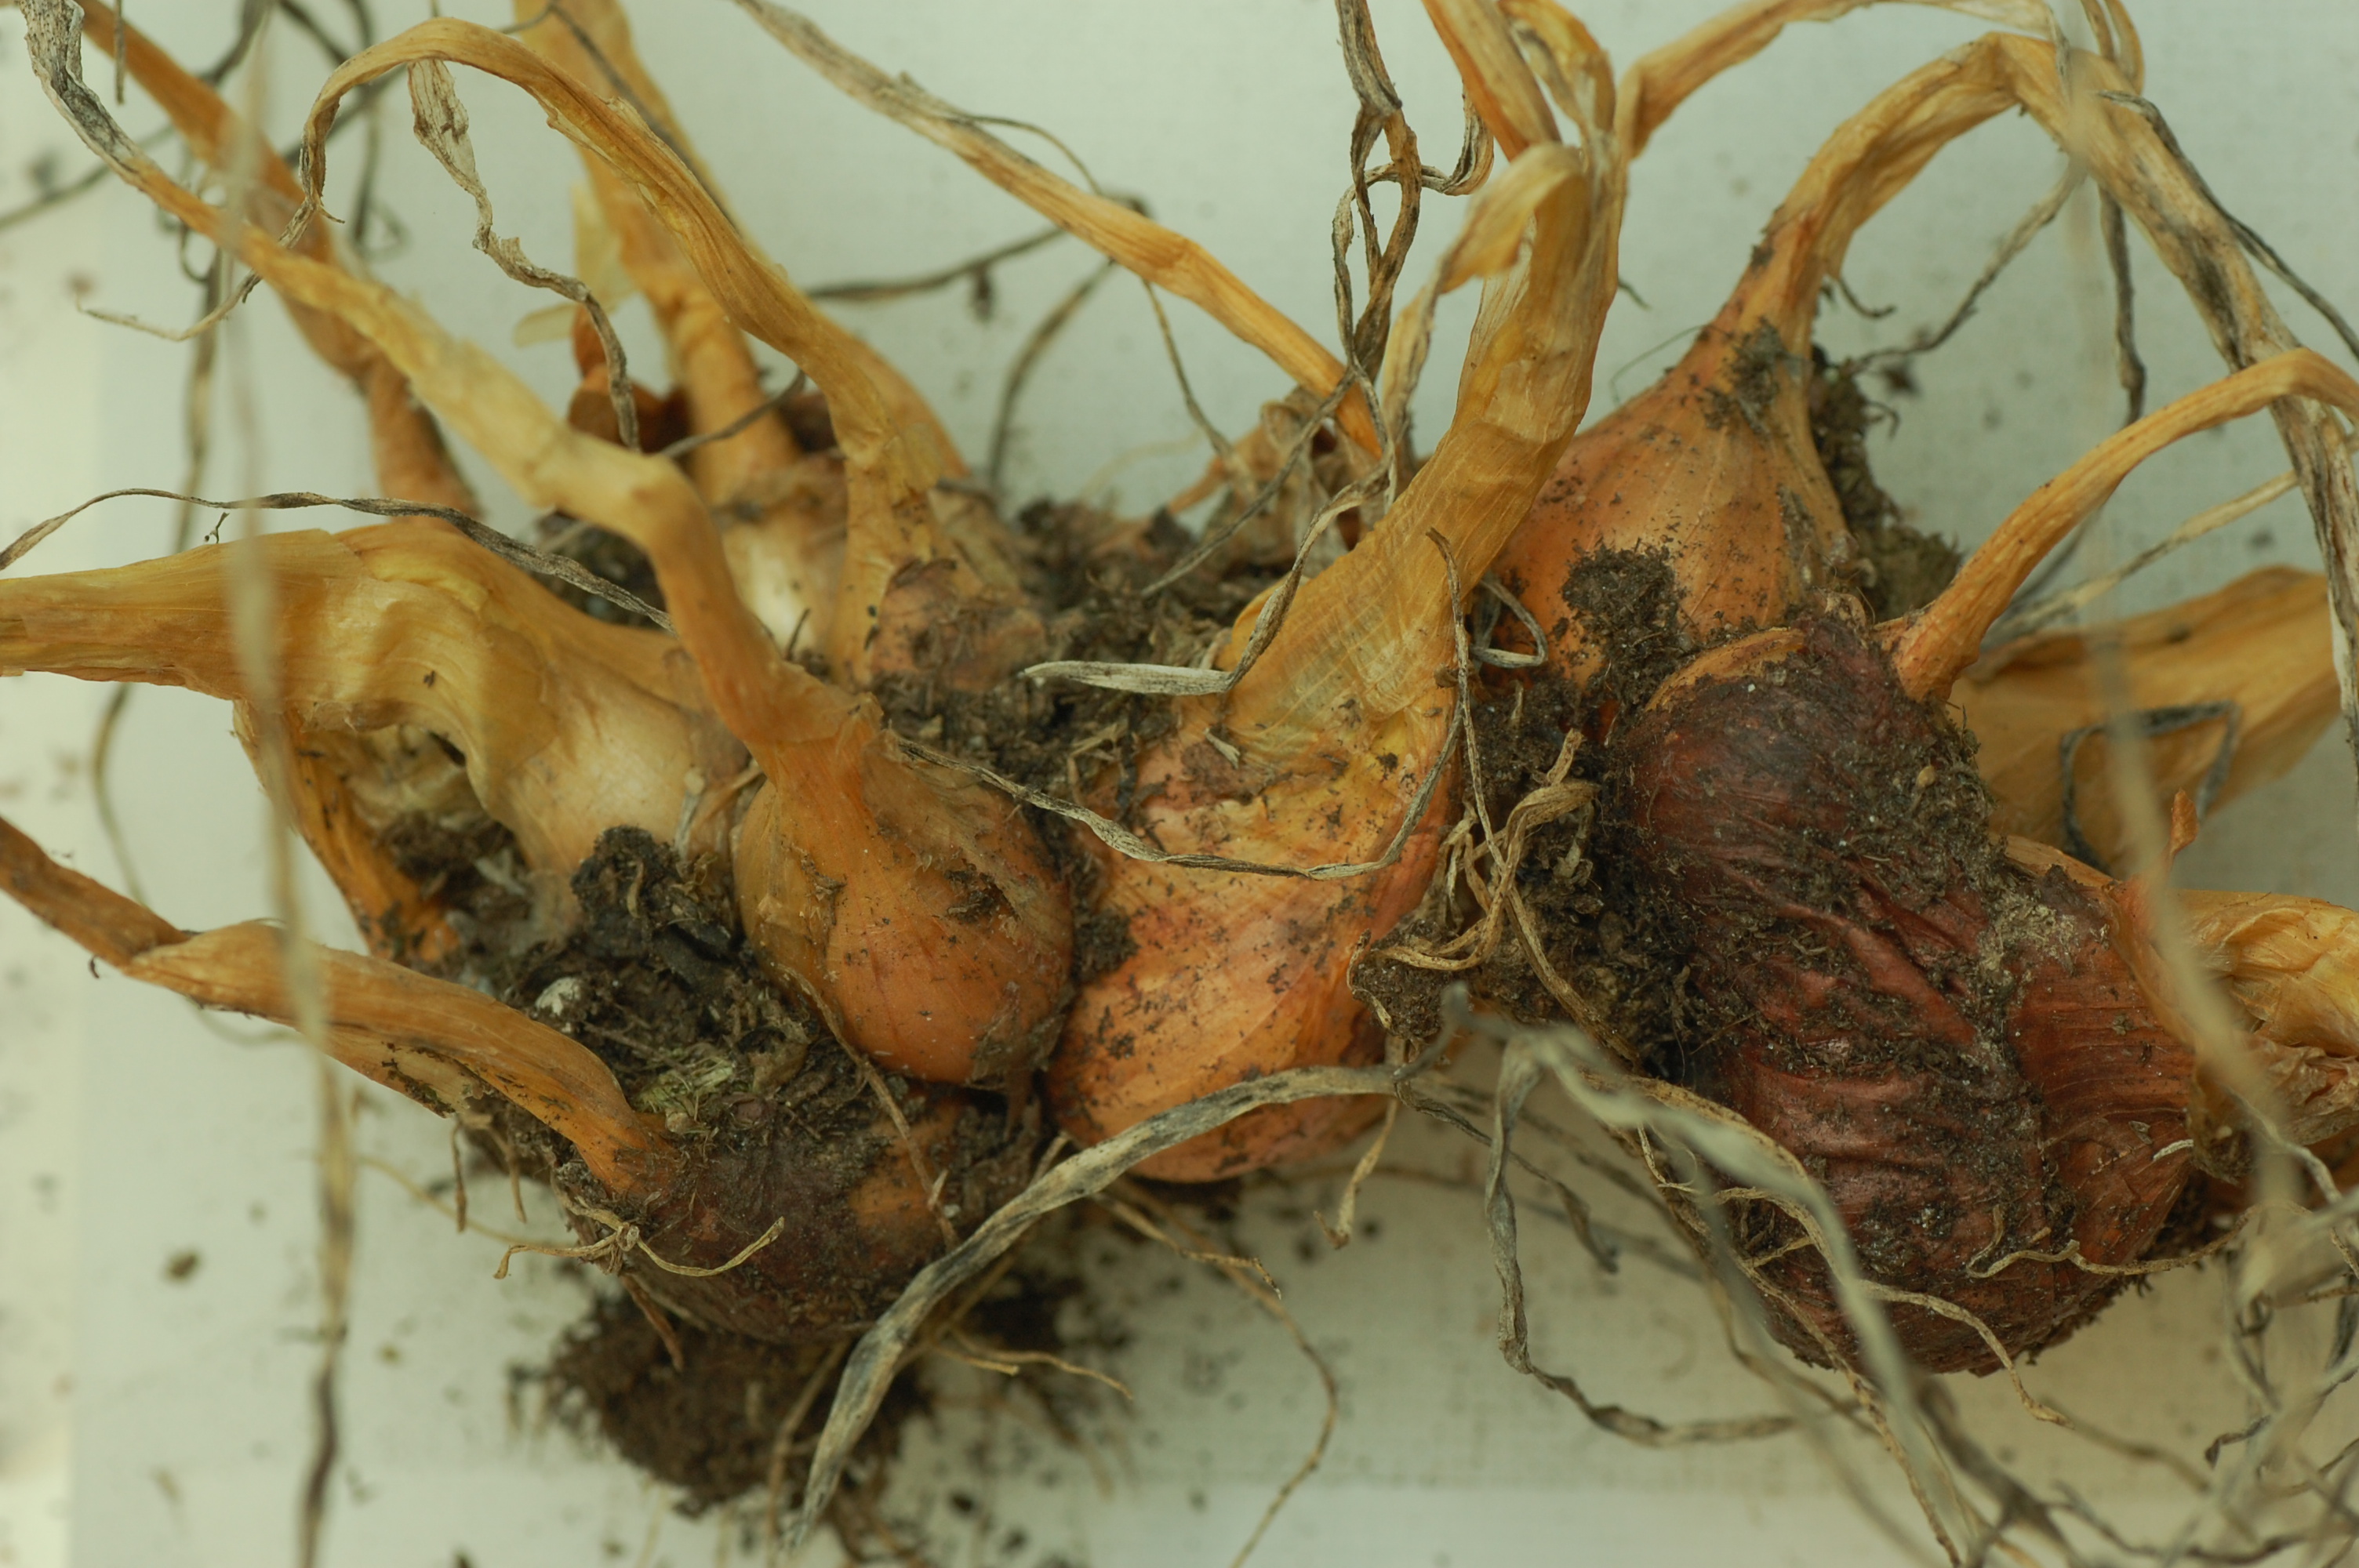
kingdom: Plantae
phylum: Tracheophyta
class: Liliopsida
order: Asparagales
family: Amaryllidaceae
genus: Allium
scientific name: Allium cepa
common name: Onion
